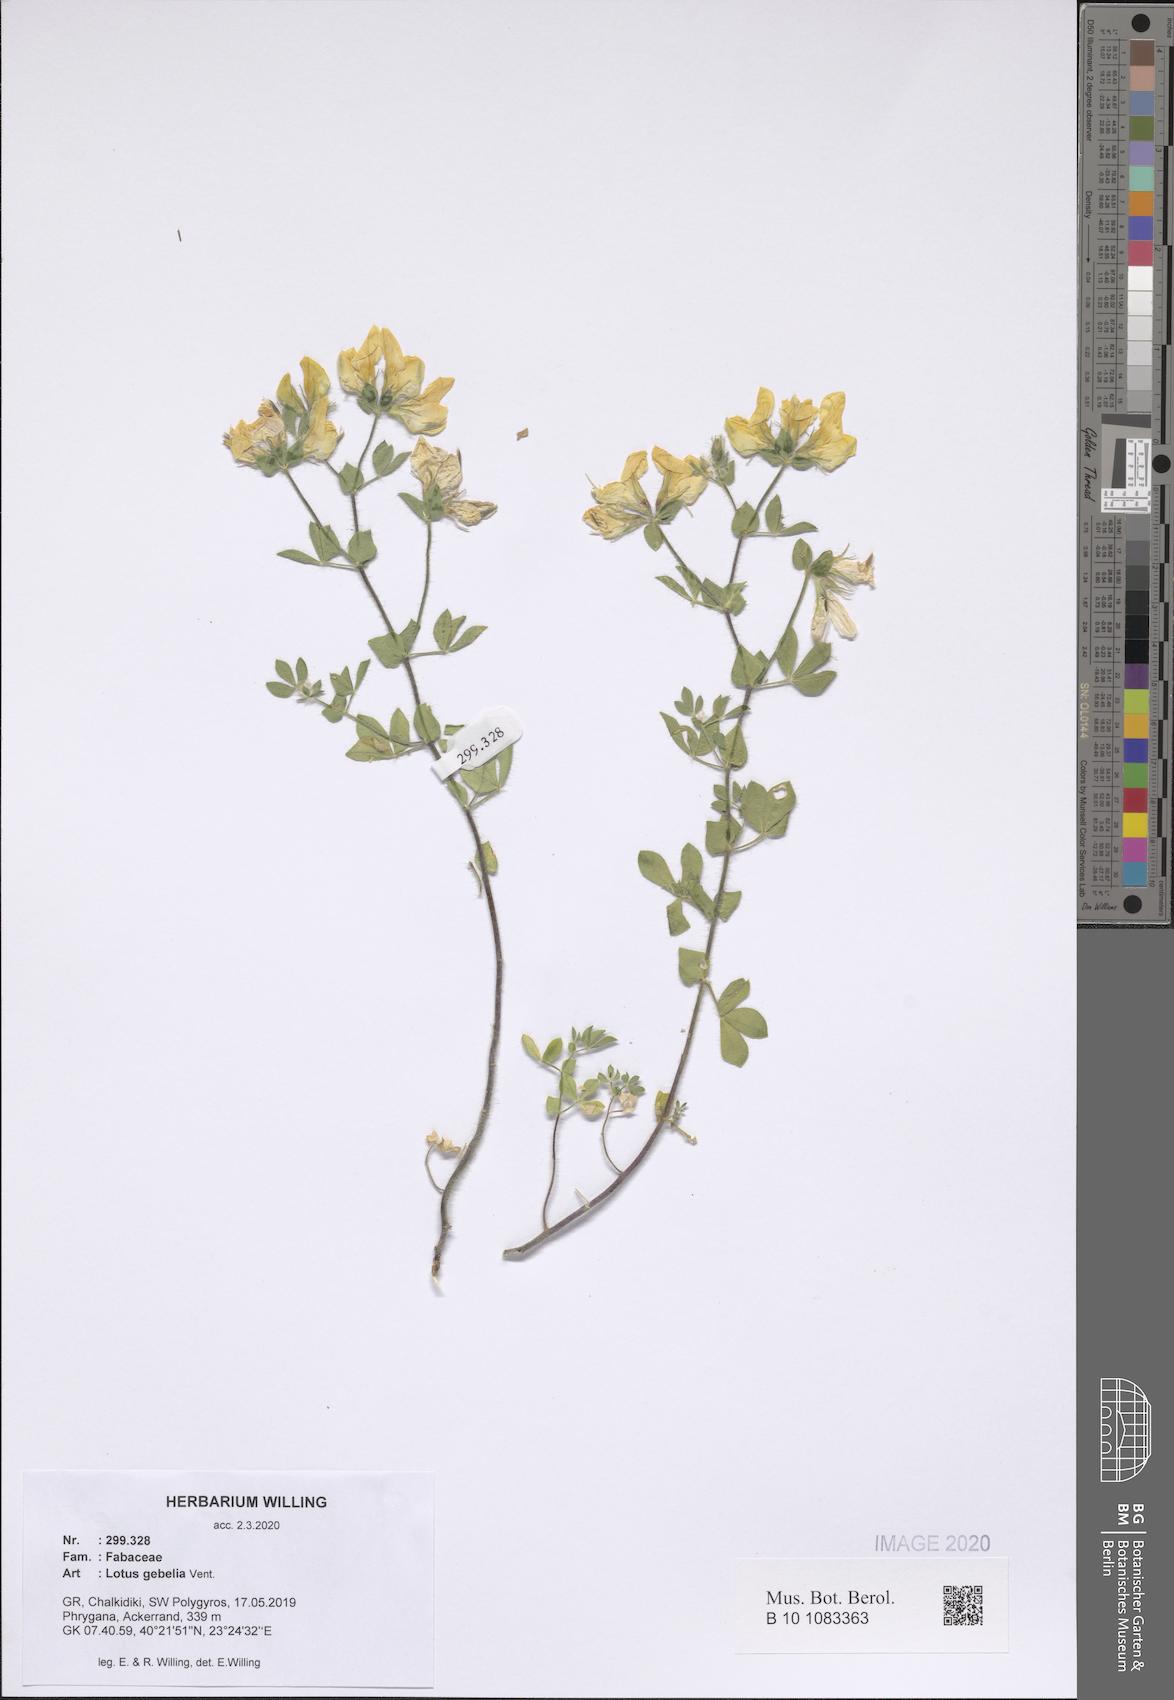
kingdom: Plantae
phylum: Tracheophyta
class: Magnoliopsida
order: Fabales
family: Fabaceae
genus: Lotus
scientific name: Lotus gebelia
